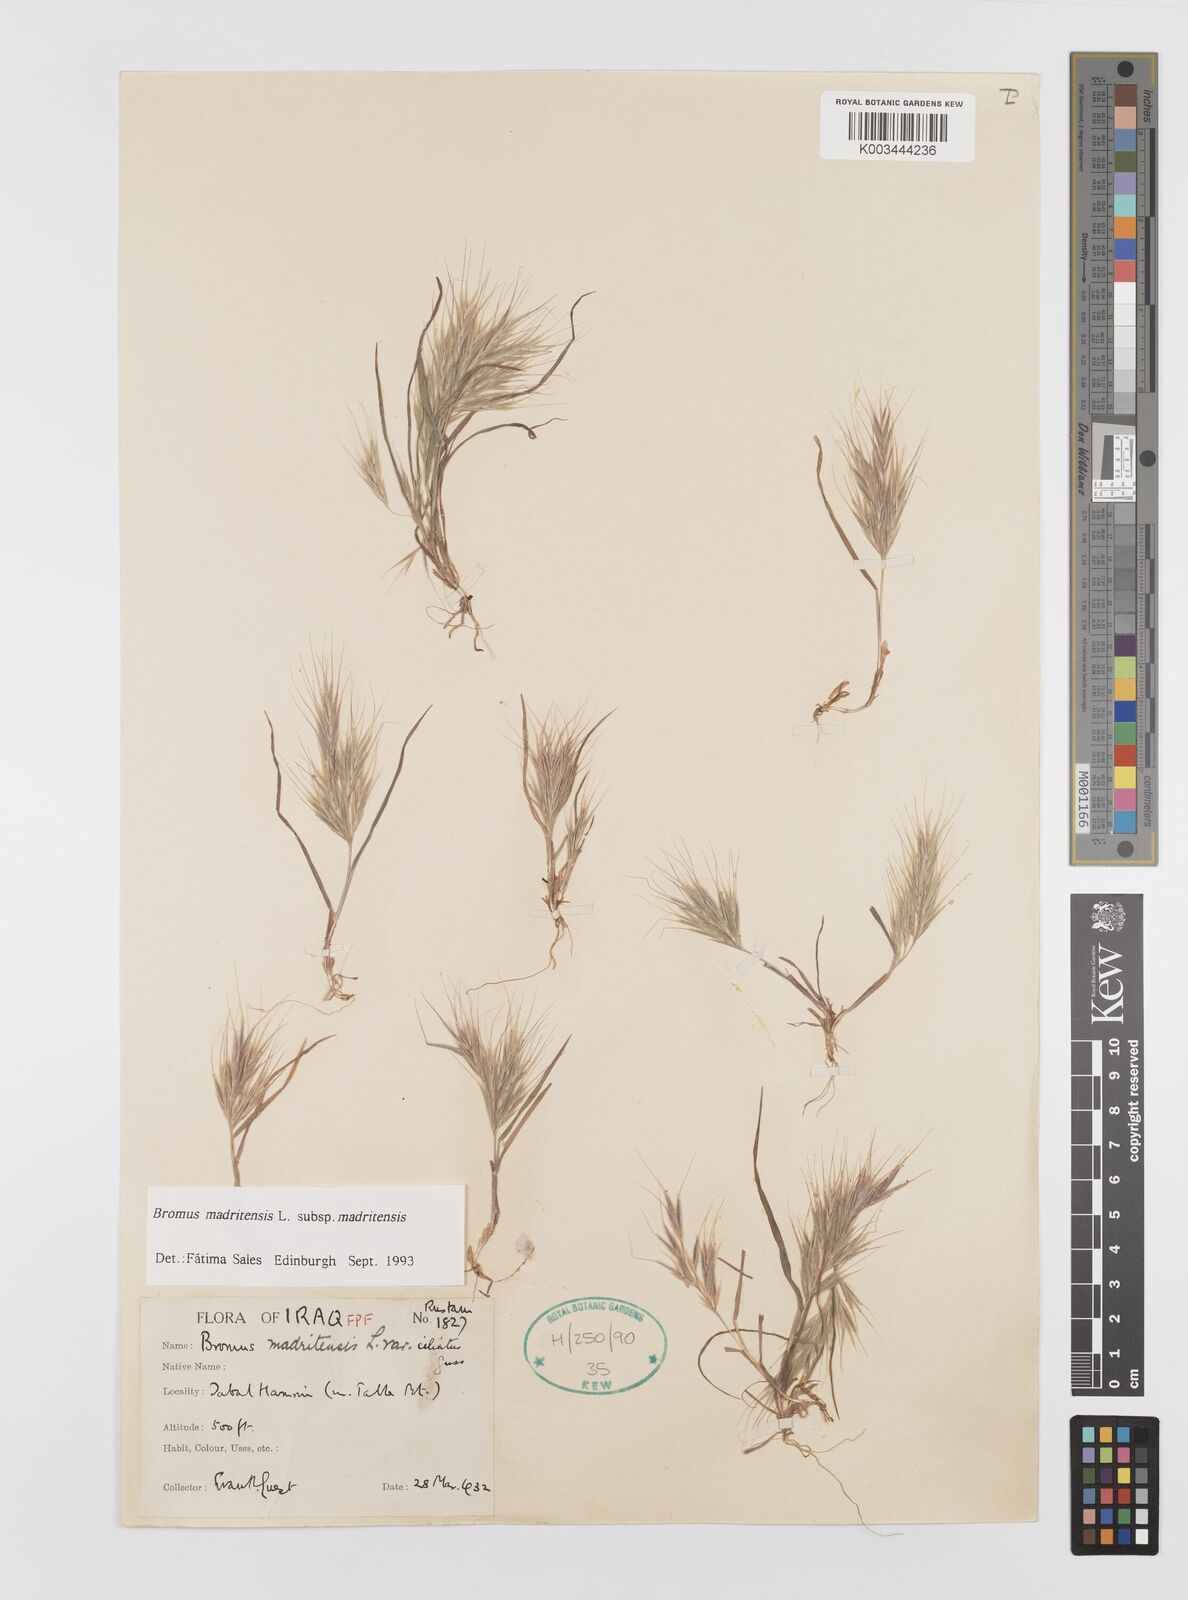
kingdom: Plantae
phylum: Tracheophyta
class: Liliopsida
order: Poales
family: Poaceae
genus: Bromus
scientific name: Bromus madritensis
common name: Compact brome
